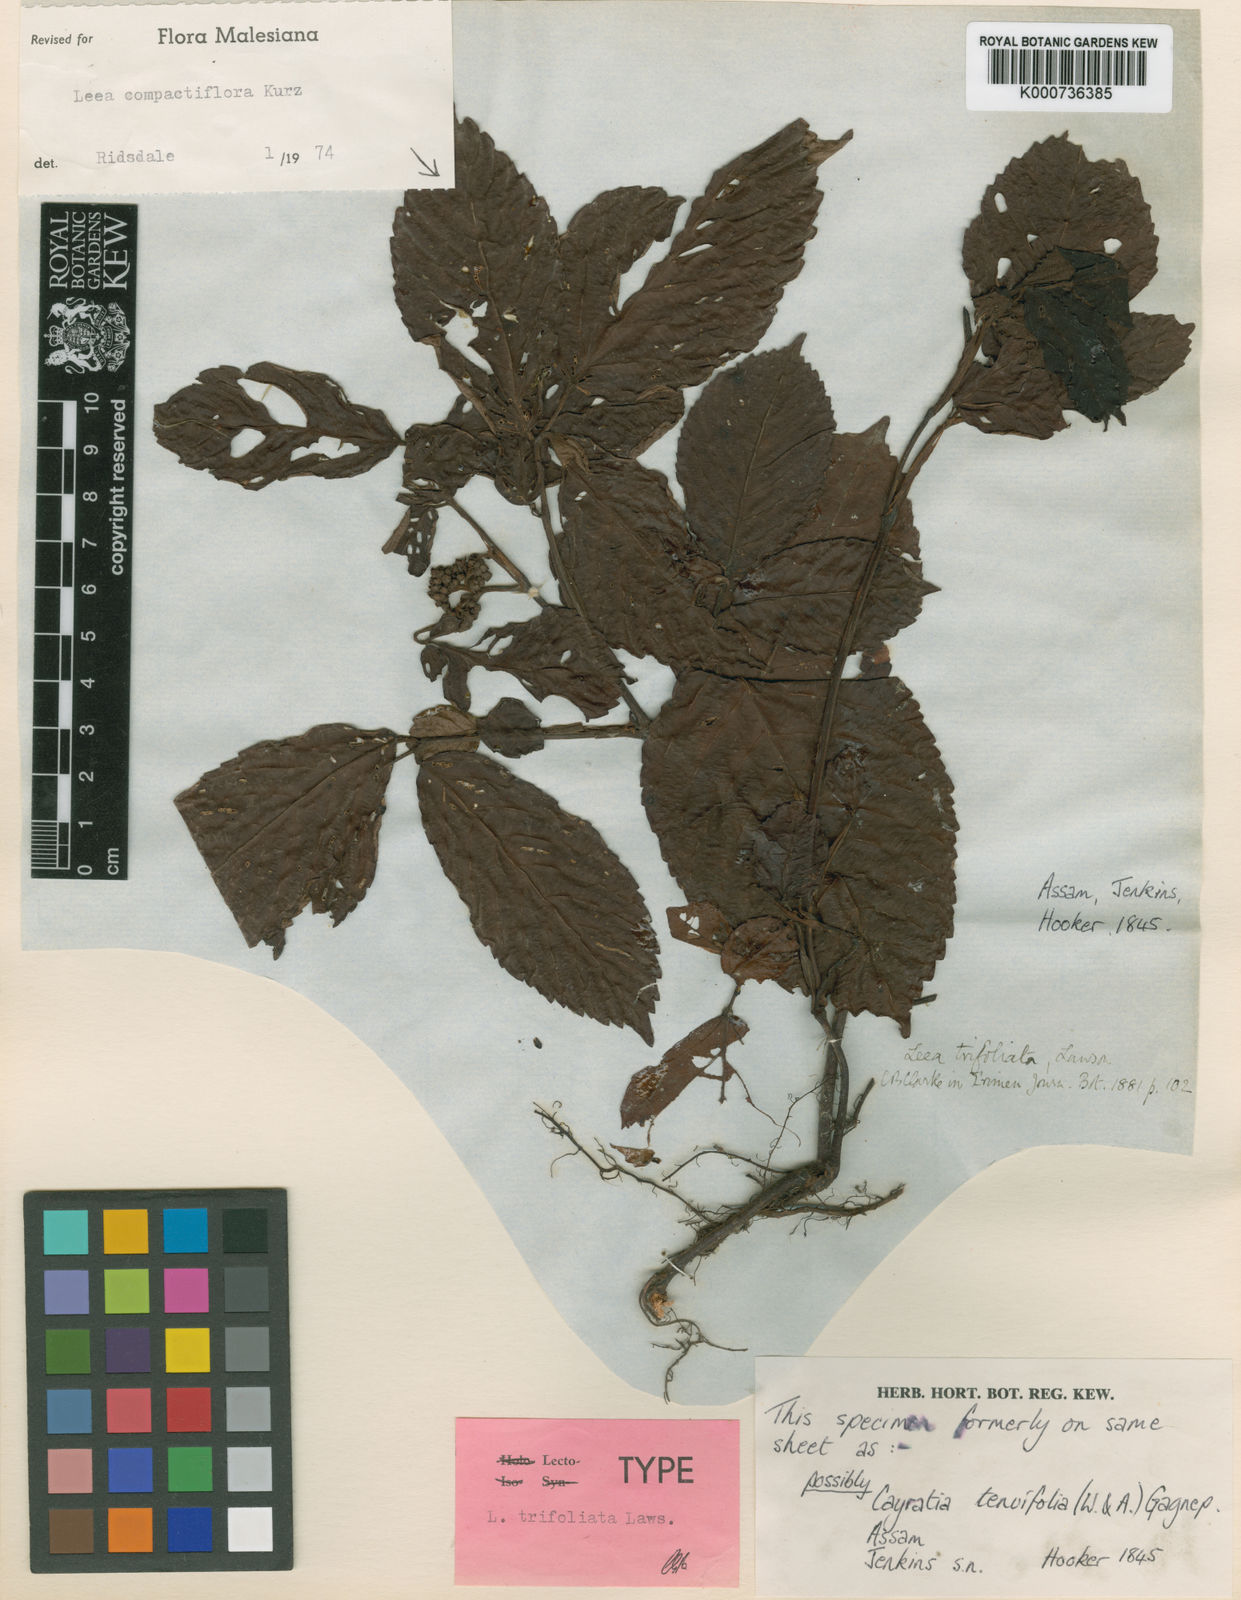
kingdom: Plantae
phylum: Tracheophyta
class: Magnoliopsida
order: Vitales
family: Vitaceae
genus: Leea
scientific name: Leea compactiflora
